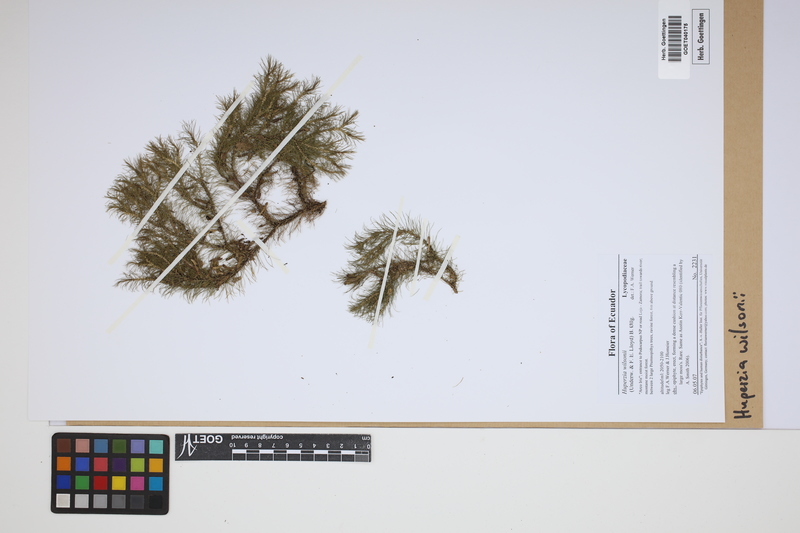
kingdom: Plantae
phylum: Tracheophyta
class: Lycopodiopsida
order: Lycopodiales
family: Lycopodiaceae
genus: Phlegmariurus
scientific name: Phlegmariurus wilsonii
